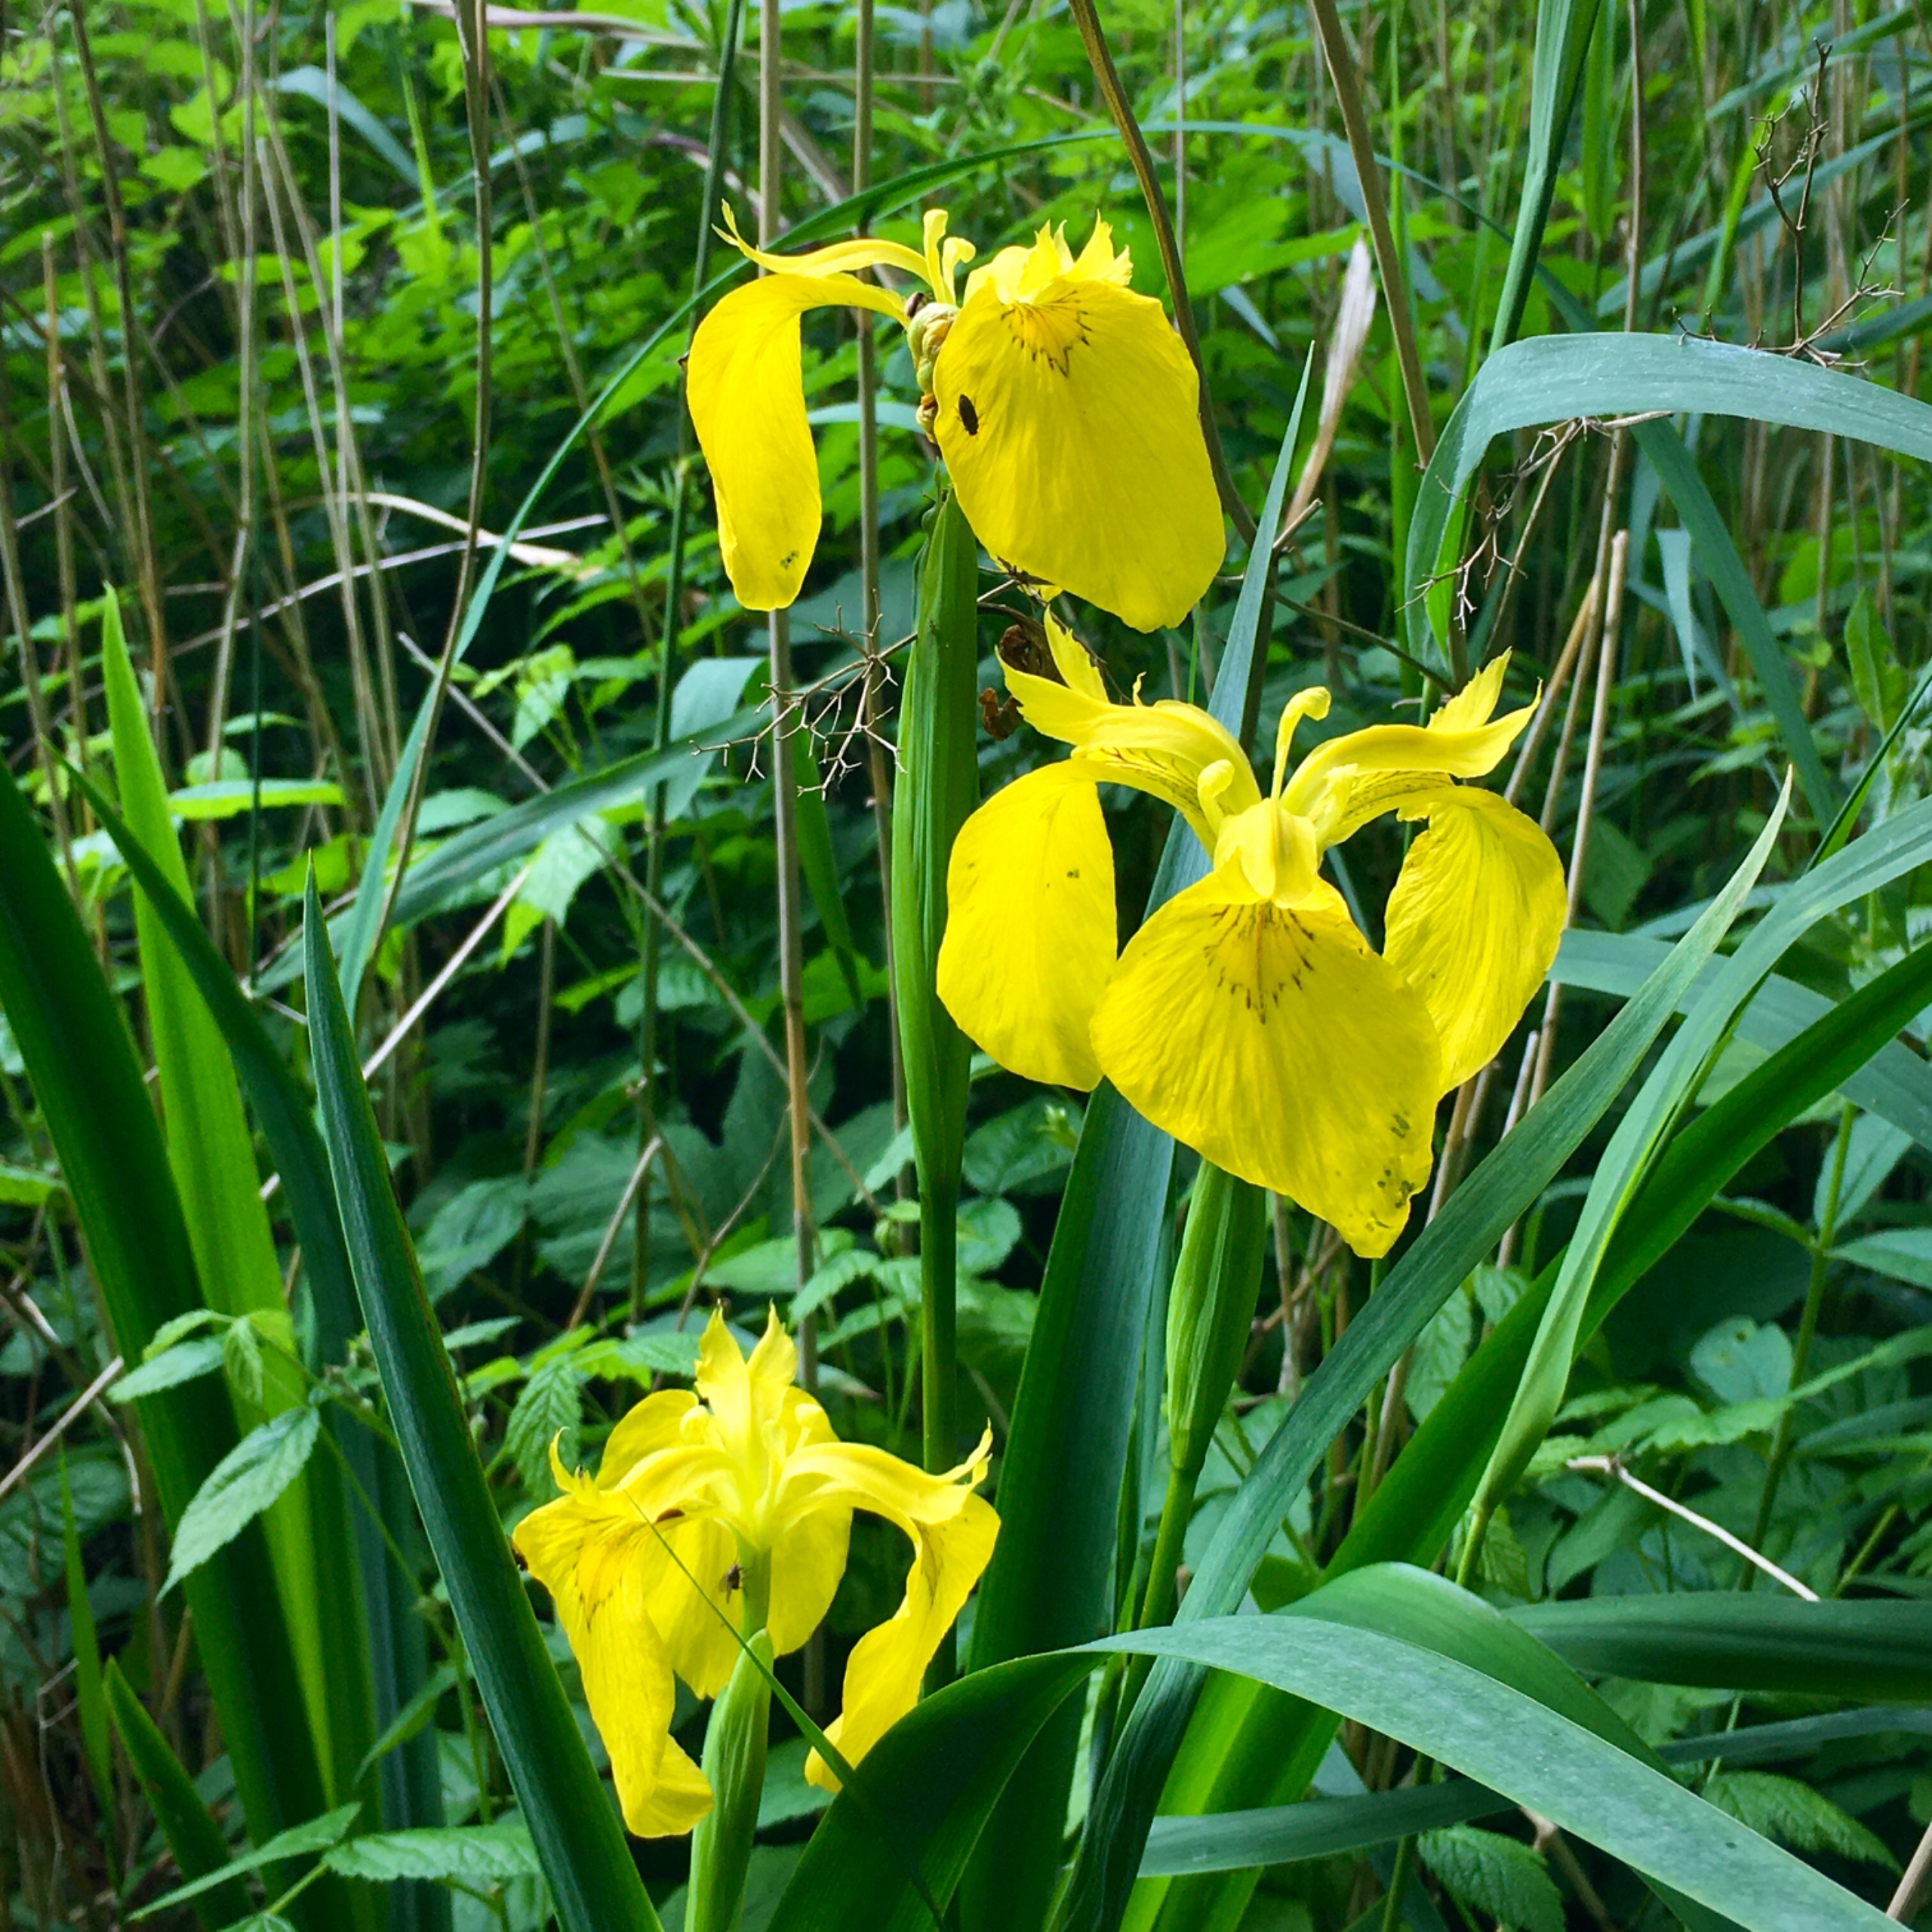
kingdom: Plantae
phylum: Tracheophyta
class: Liliopsida
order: Asparagales
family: Iridaceae
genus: Iris
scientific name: Iris pseudacorus
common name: Gul iris
